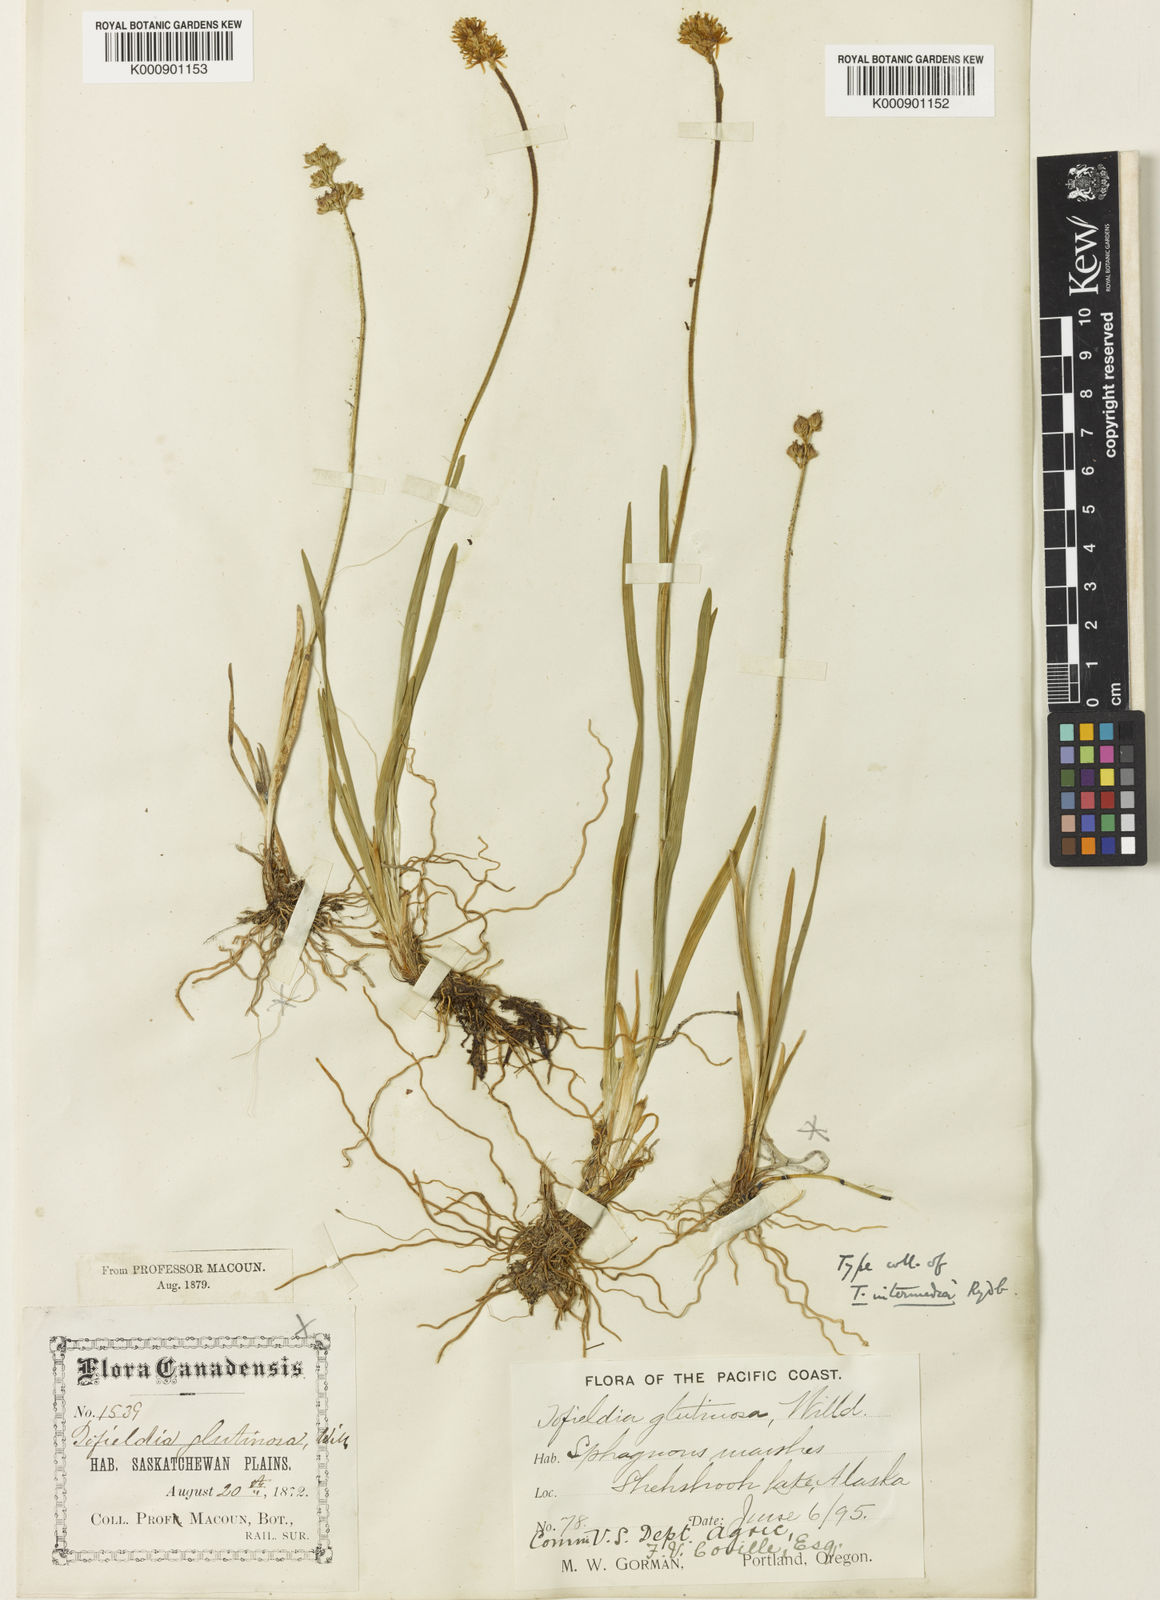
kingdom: Plantae
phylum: Tracheophyta
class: Liliopsida
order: Alismatales
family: Tofieldiaceae
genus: Triantha
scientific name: Triantha occidentalis
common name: Western false asphodel
